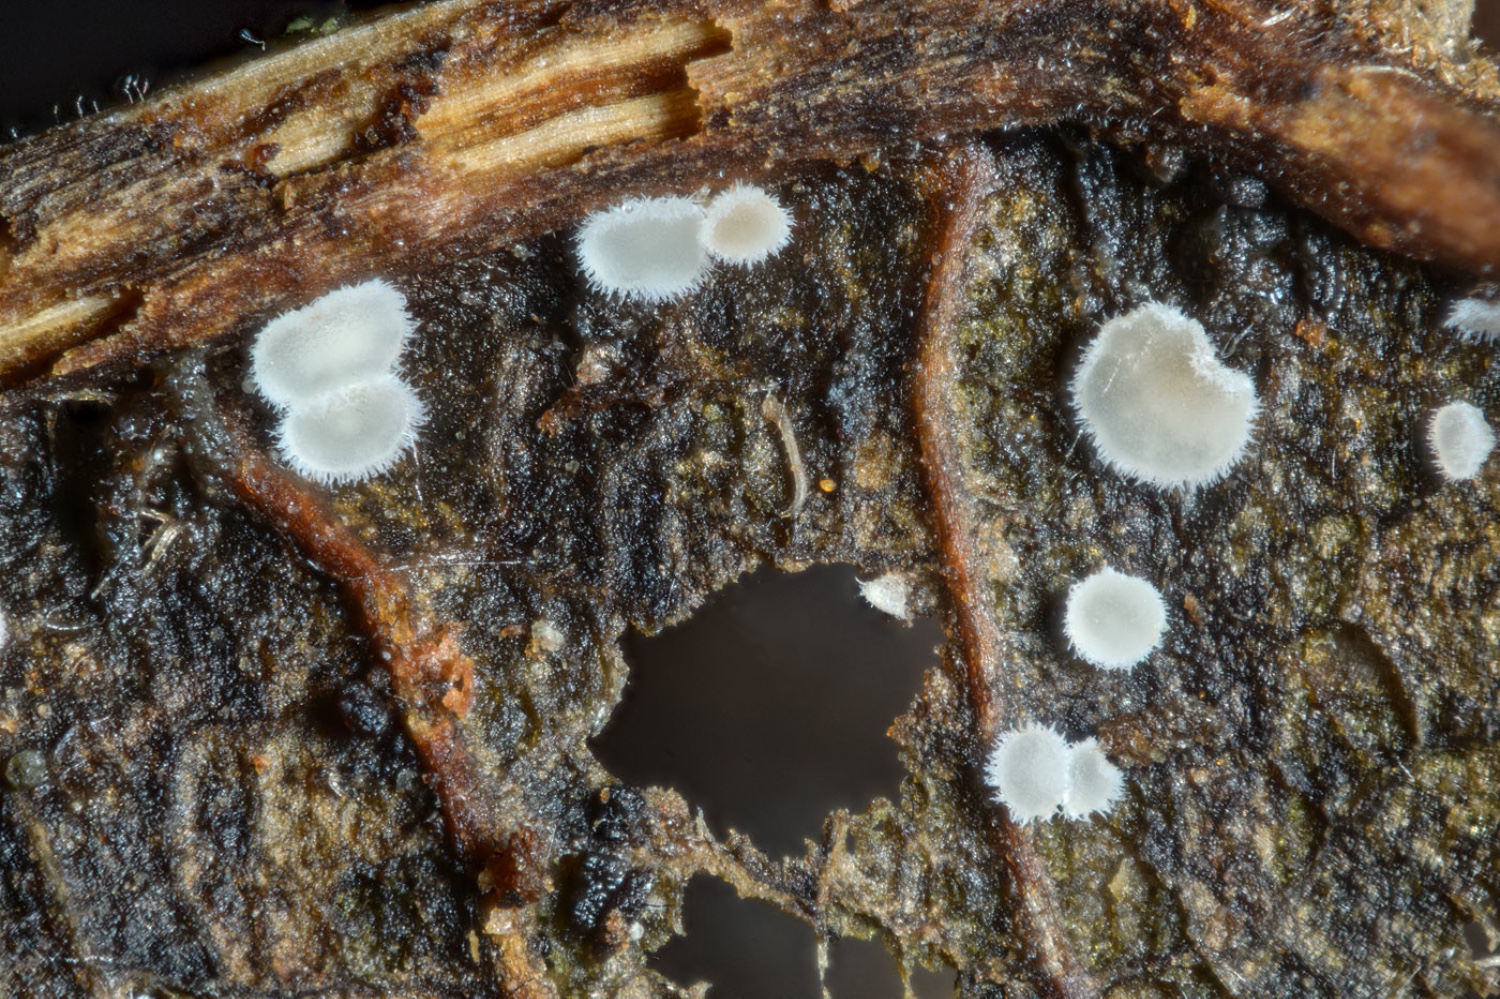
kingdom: Fungi
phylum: Ascomycota
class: Leotiomycetes
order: Helotiales
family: Hyaloscyphaceae
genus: Hyaloscypha
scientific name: Hyaloscypha carpinacea
